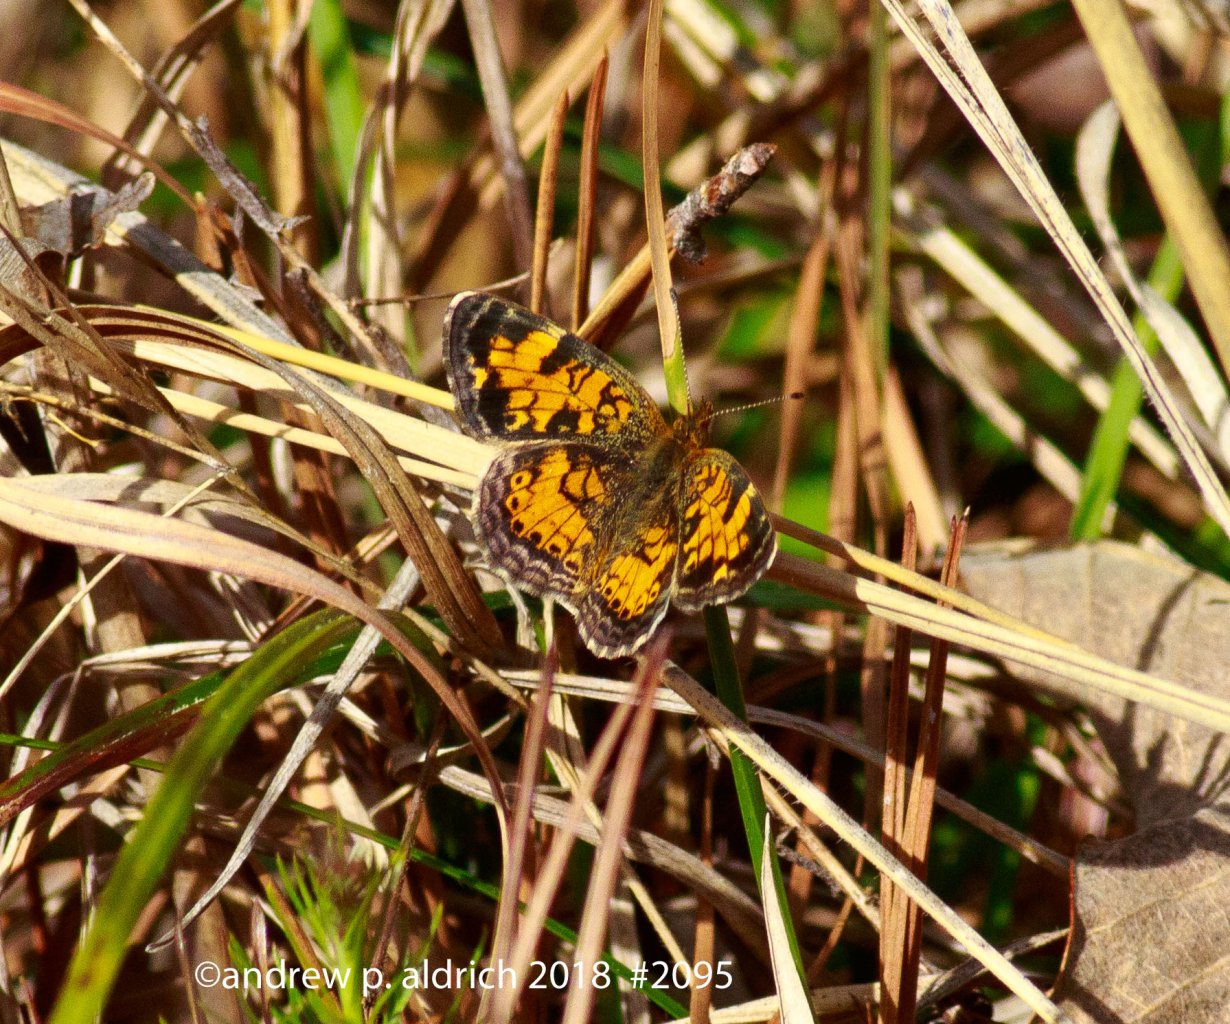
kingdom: Animalia
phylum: Arthropoda
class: Insecta
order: Lepidoptera
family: Nymphalidae
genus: Phyciodes
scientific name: Phyciodes tharos
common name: Pearl Crescent
